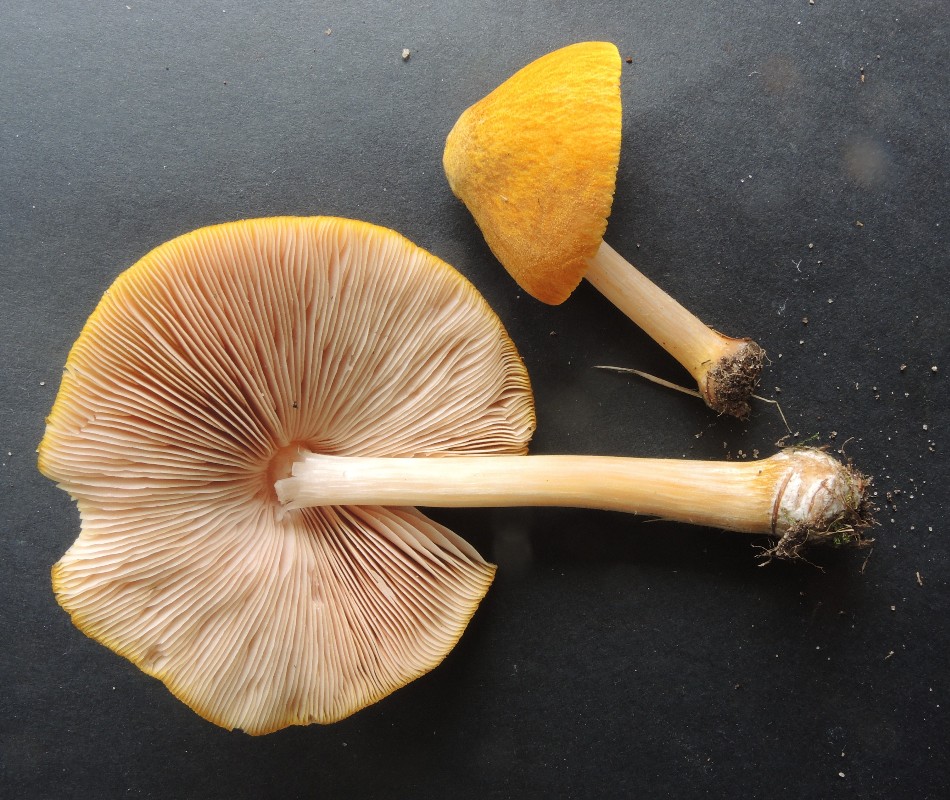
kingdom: Fungi
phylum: Basidiomycota
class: Agaricomycetes
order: Agaricales
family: Pluteaceae
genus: Pluteus
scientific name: Pluteus leoninus
